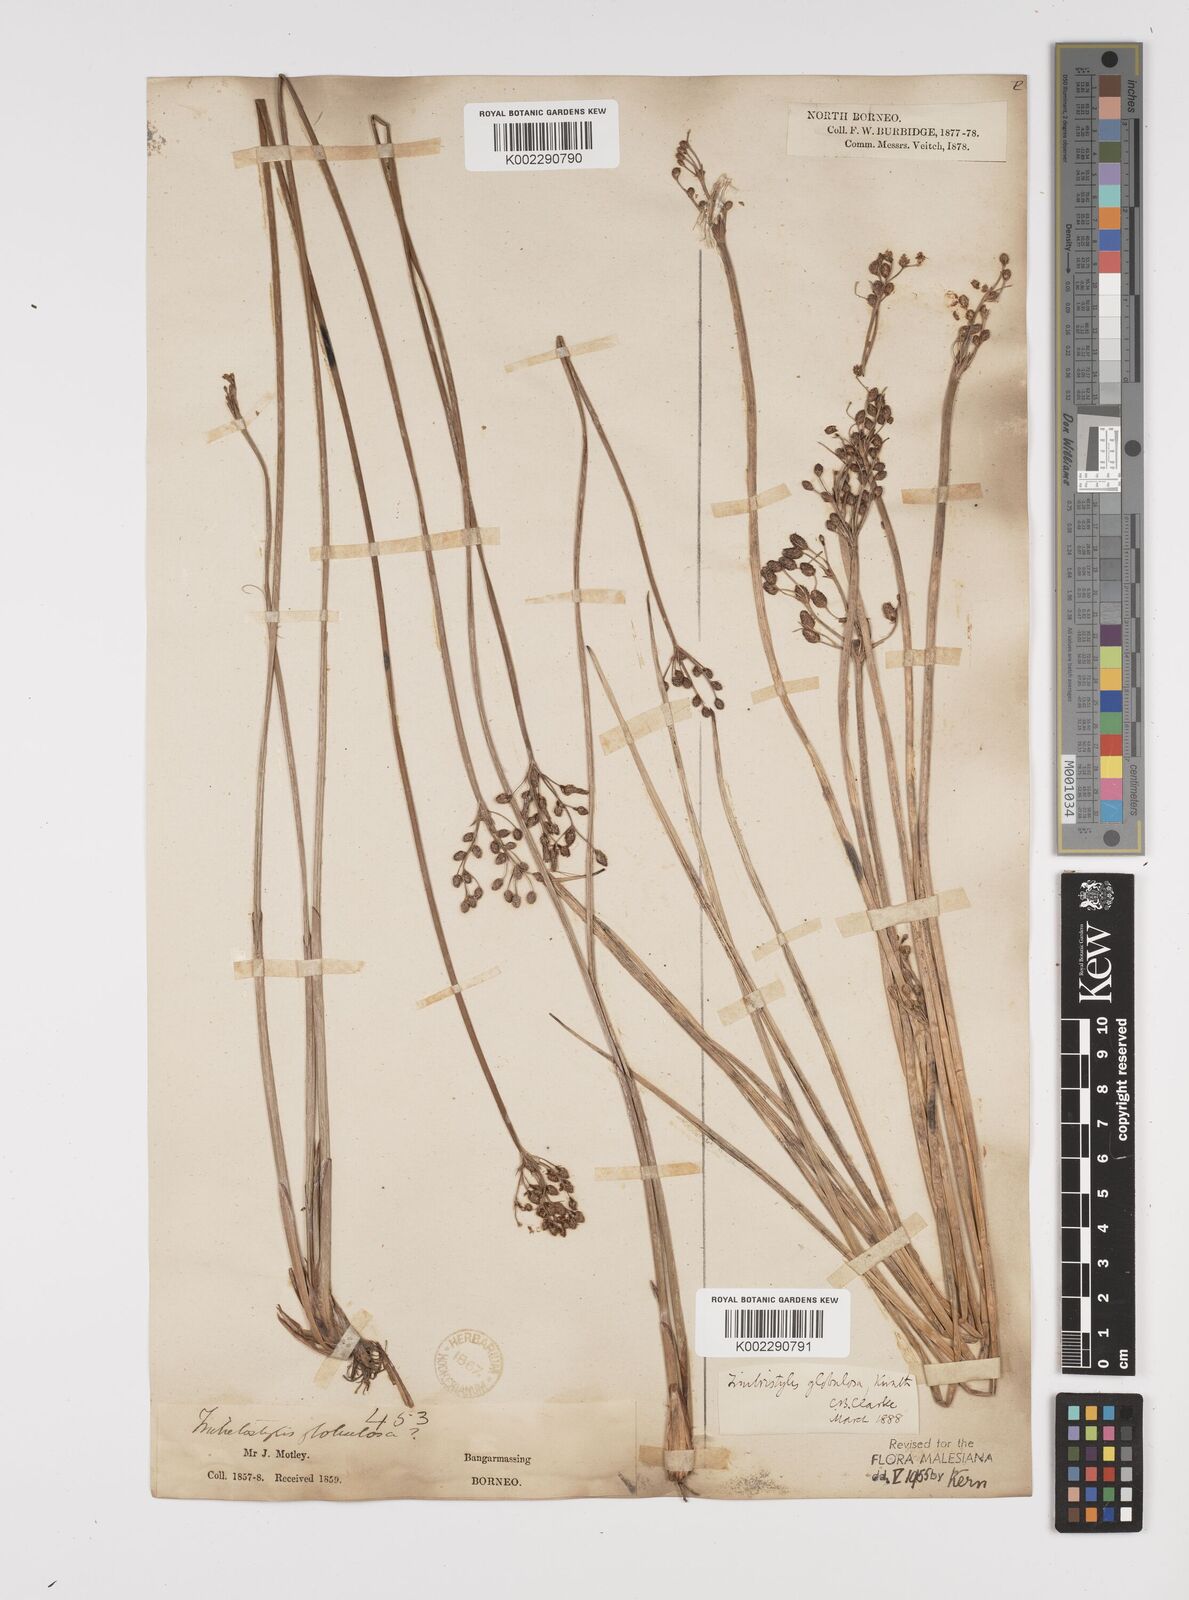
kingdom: Plantae
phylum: Tracheophyta
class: Liliopsida
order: Poales
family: Cyperaceae
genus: Fimbristylis
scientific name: Fimbristylis umbellaris
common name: Globular fimbristylis
